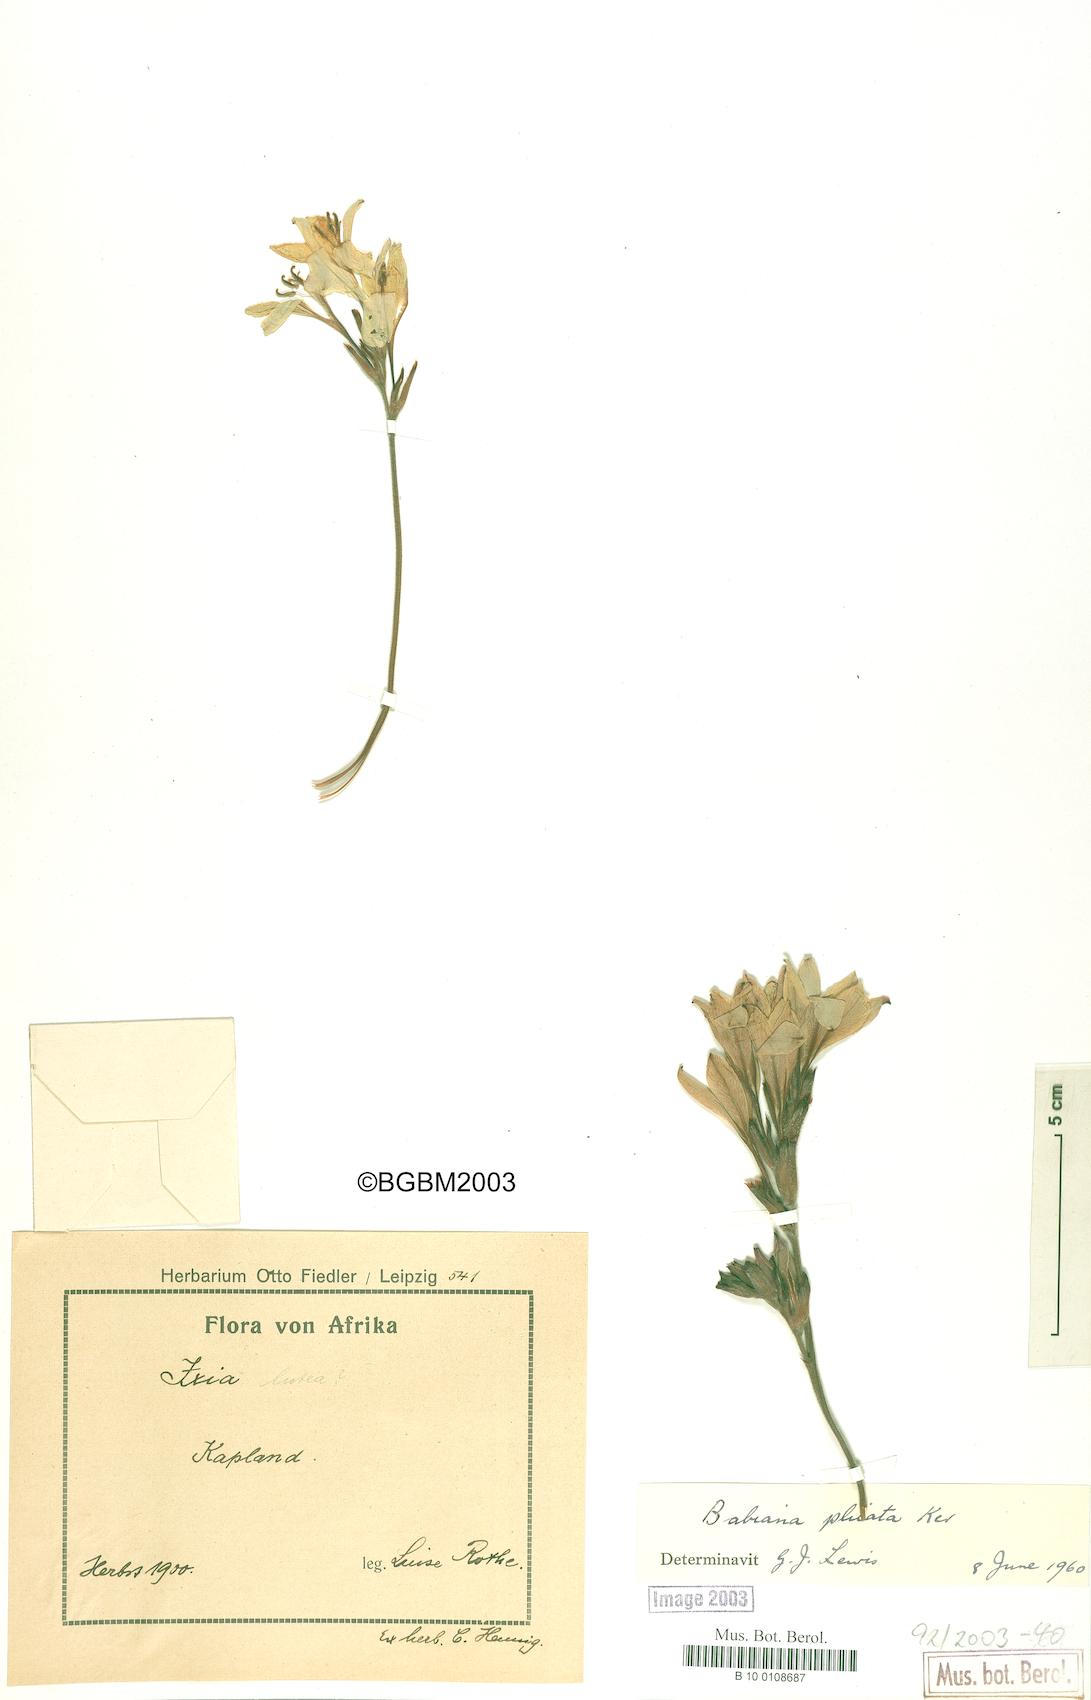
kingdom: Plantae
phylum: Tracheophyta
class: Liliopsida
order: Asparagales
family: Iridaceae
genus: Babiana
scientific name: Babiana fragrans
